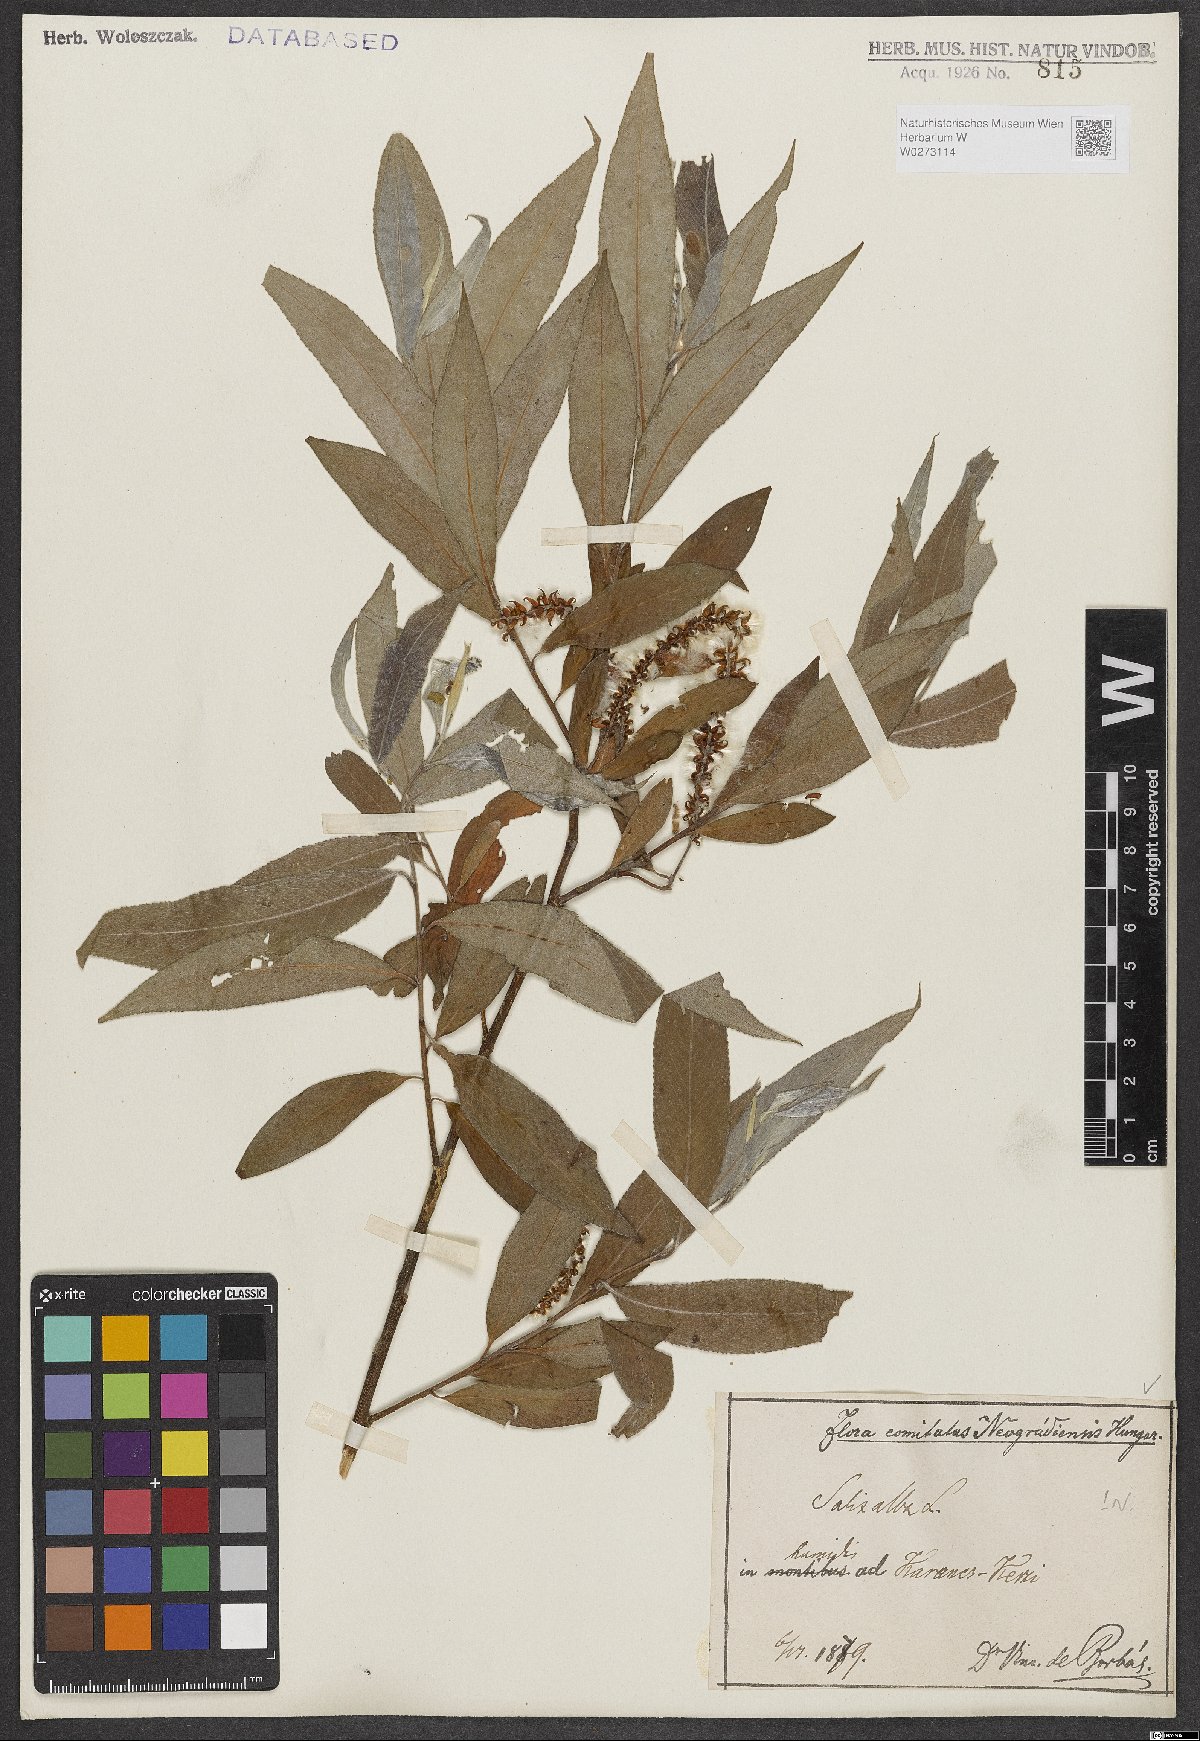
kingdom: Plantae
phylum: Tracheophyta
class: Magnoliopsida
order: Malpighiales
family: Salicaceae
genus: Salix
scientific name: Salix alba
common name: White willow
